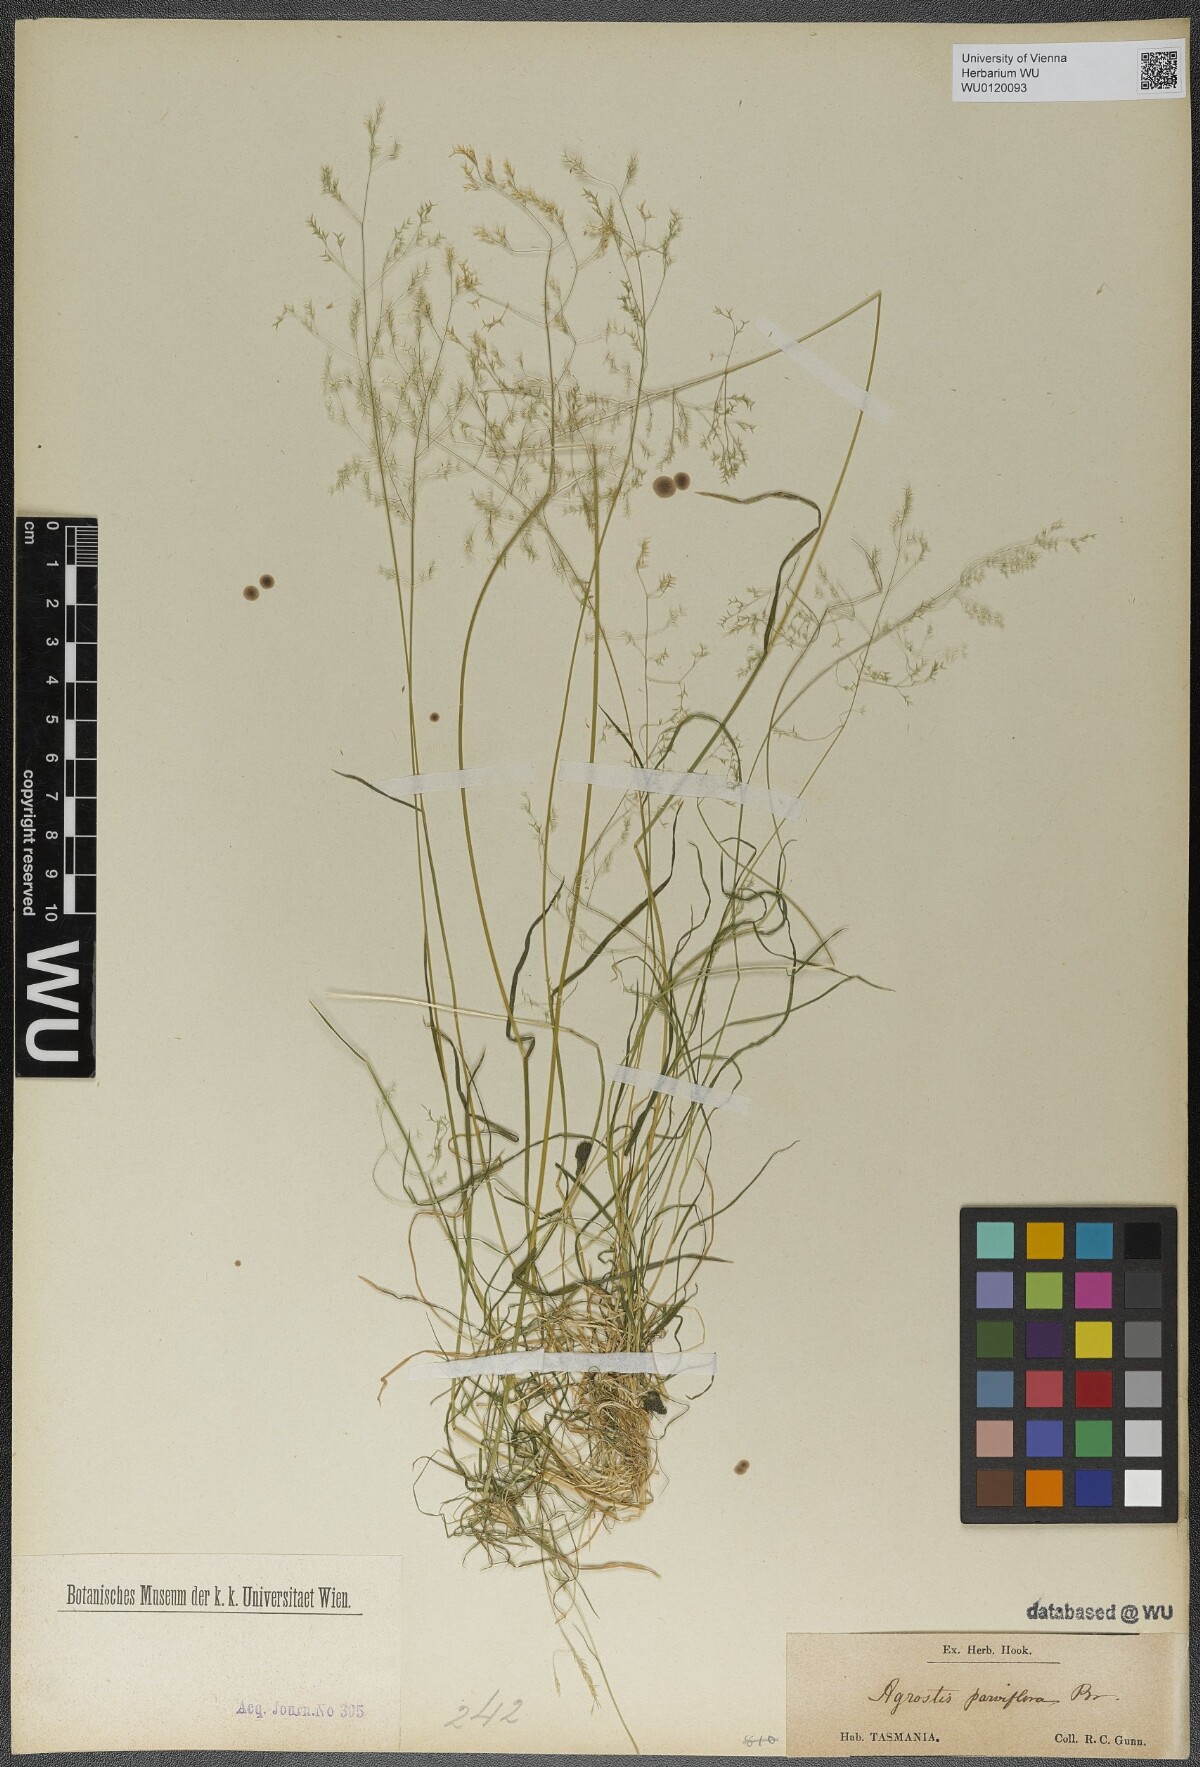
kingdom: Plantae
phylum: Tracheophyta
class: Liliopsida
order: Poales
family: Poaceae
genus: Agrostis
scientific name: Agrostis parviflora
